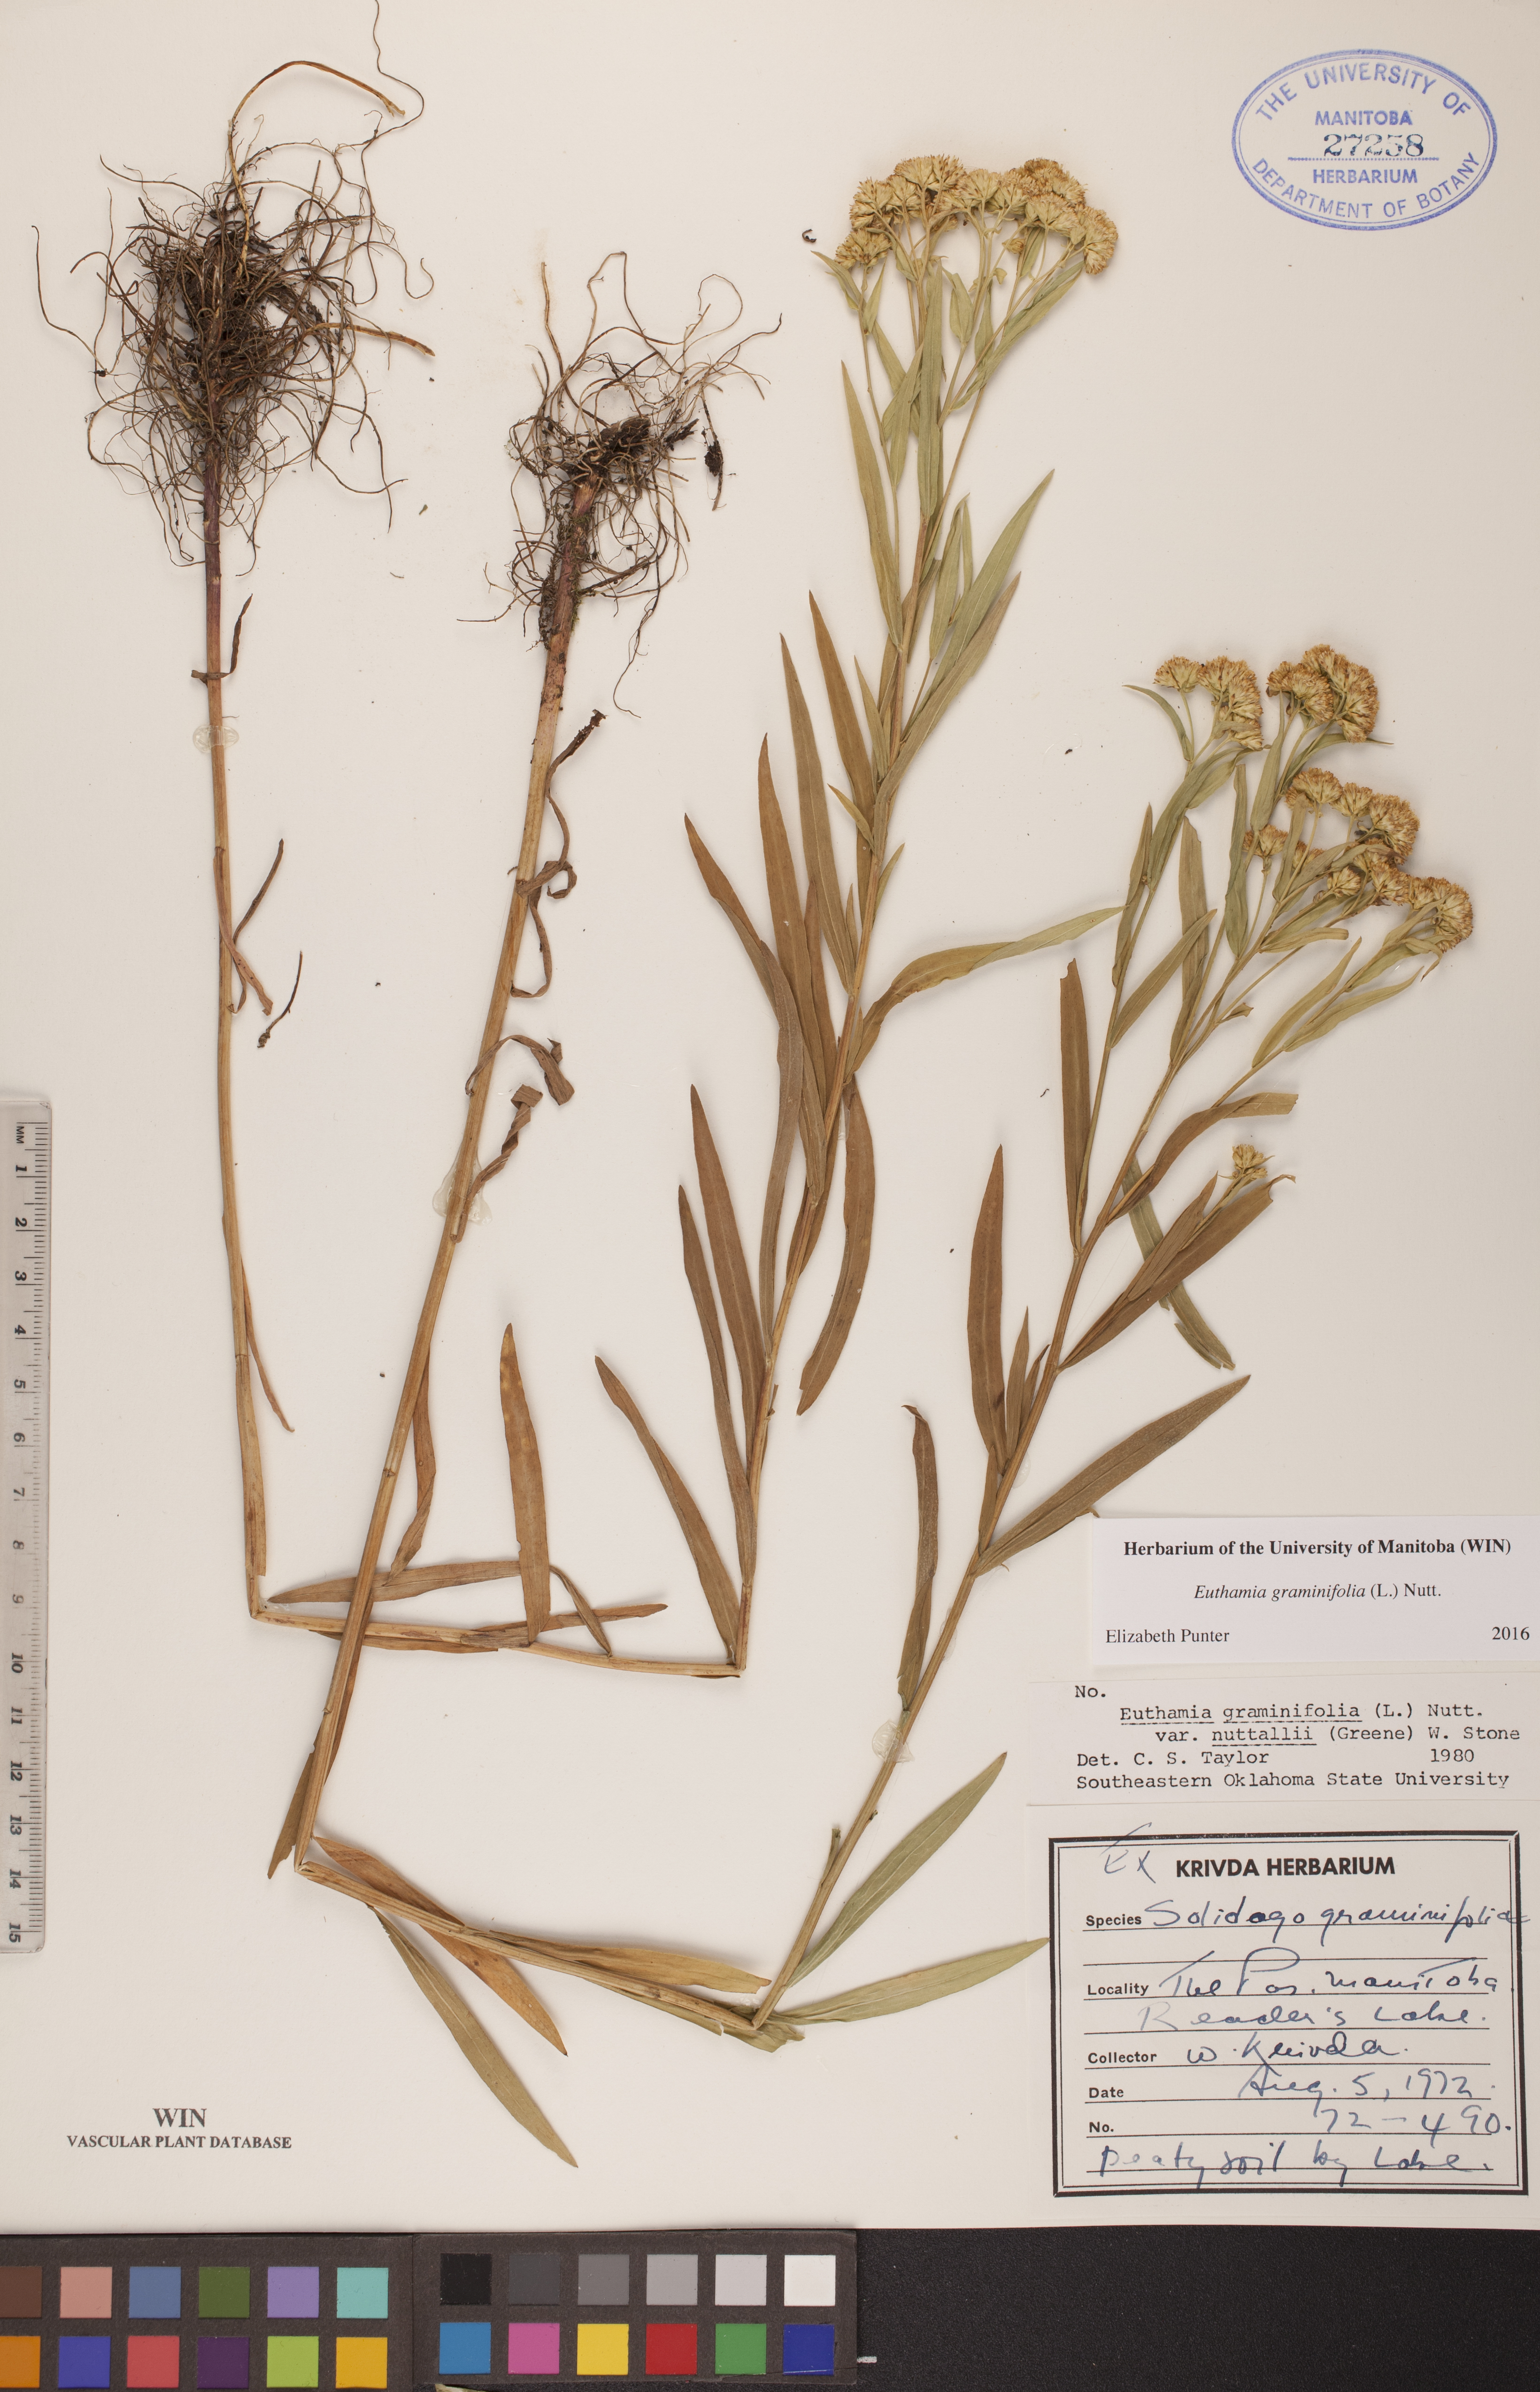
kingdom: Plantae
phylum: Tracheophyta
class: Magnoliopsida
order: Asterales
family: Asteraceae
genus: Euthamia
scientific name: Euthamia graminifolia
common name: Common goldentop
